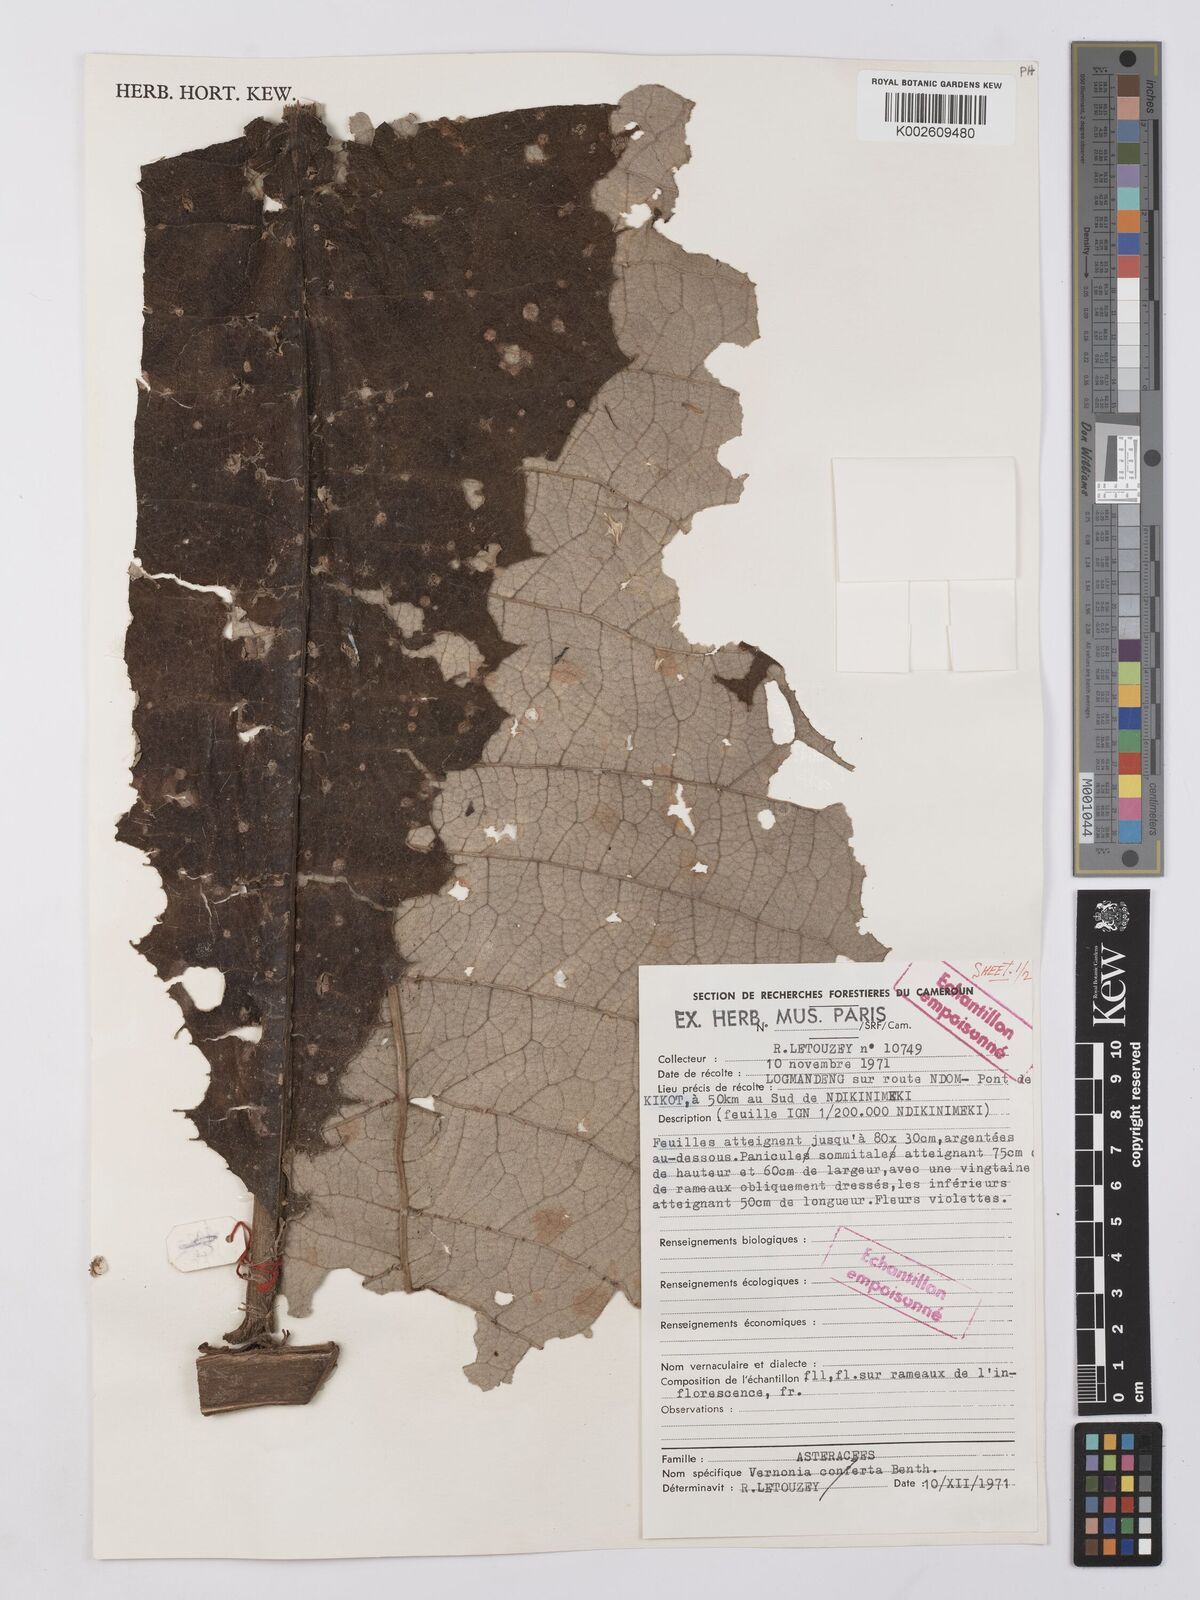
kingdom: Plantae
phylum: Tracheophyta
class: Magnoliopsida
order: Asterales
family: Asteraceae
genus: Vernonia
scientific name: Vernonia
